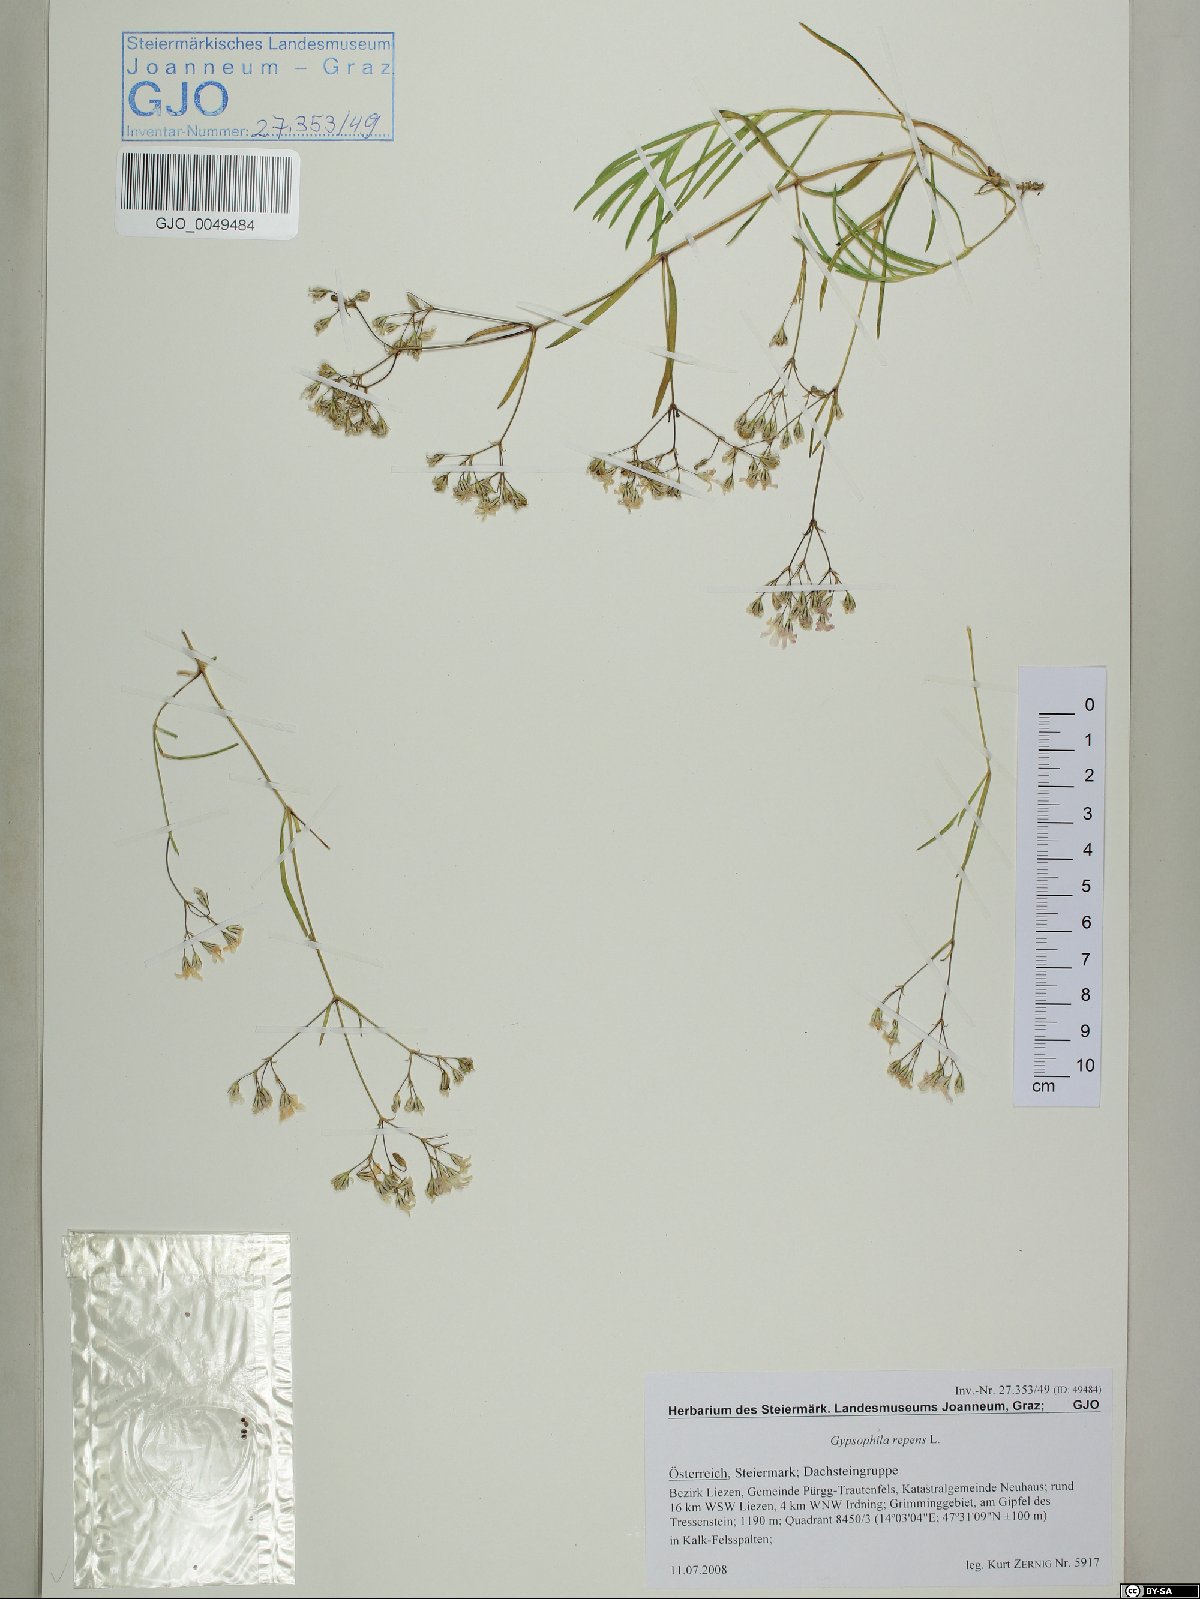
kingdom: Plantae
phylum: Tracheophyta
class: Magnoliopsida
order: Caryophyllales
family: Caryophyllaceae
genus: Gypsophila
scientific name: Gypsophila repens
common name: Creeping baby's-breath
